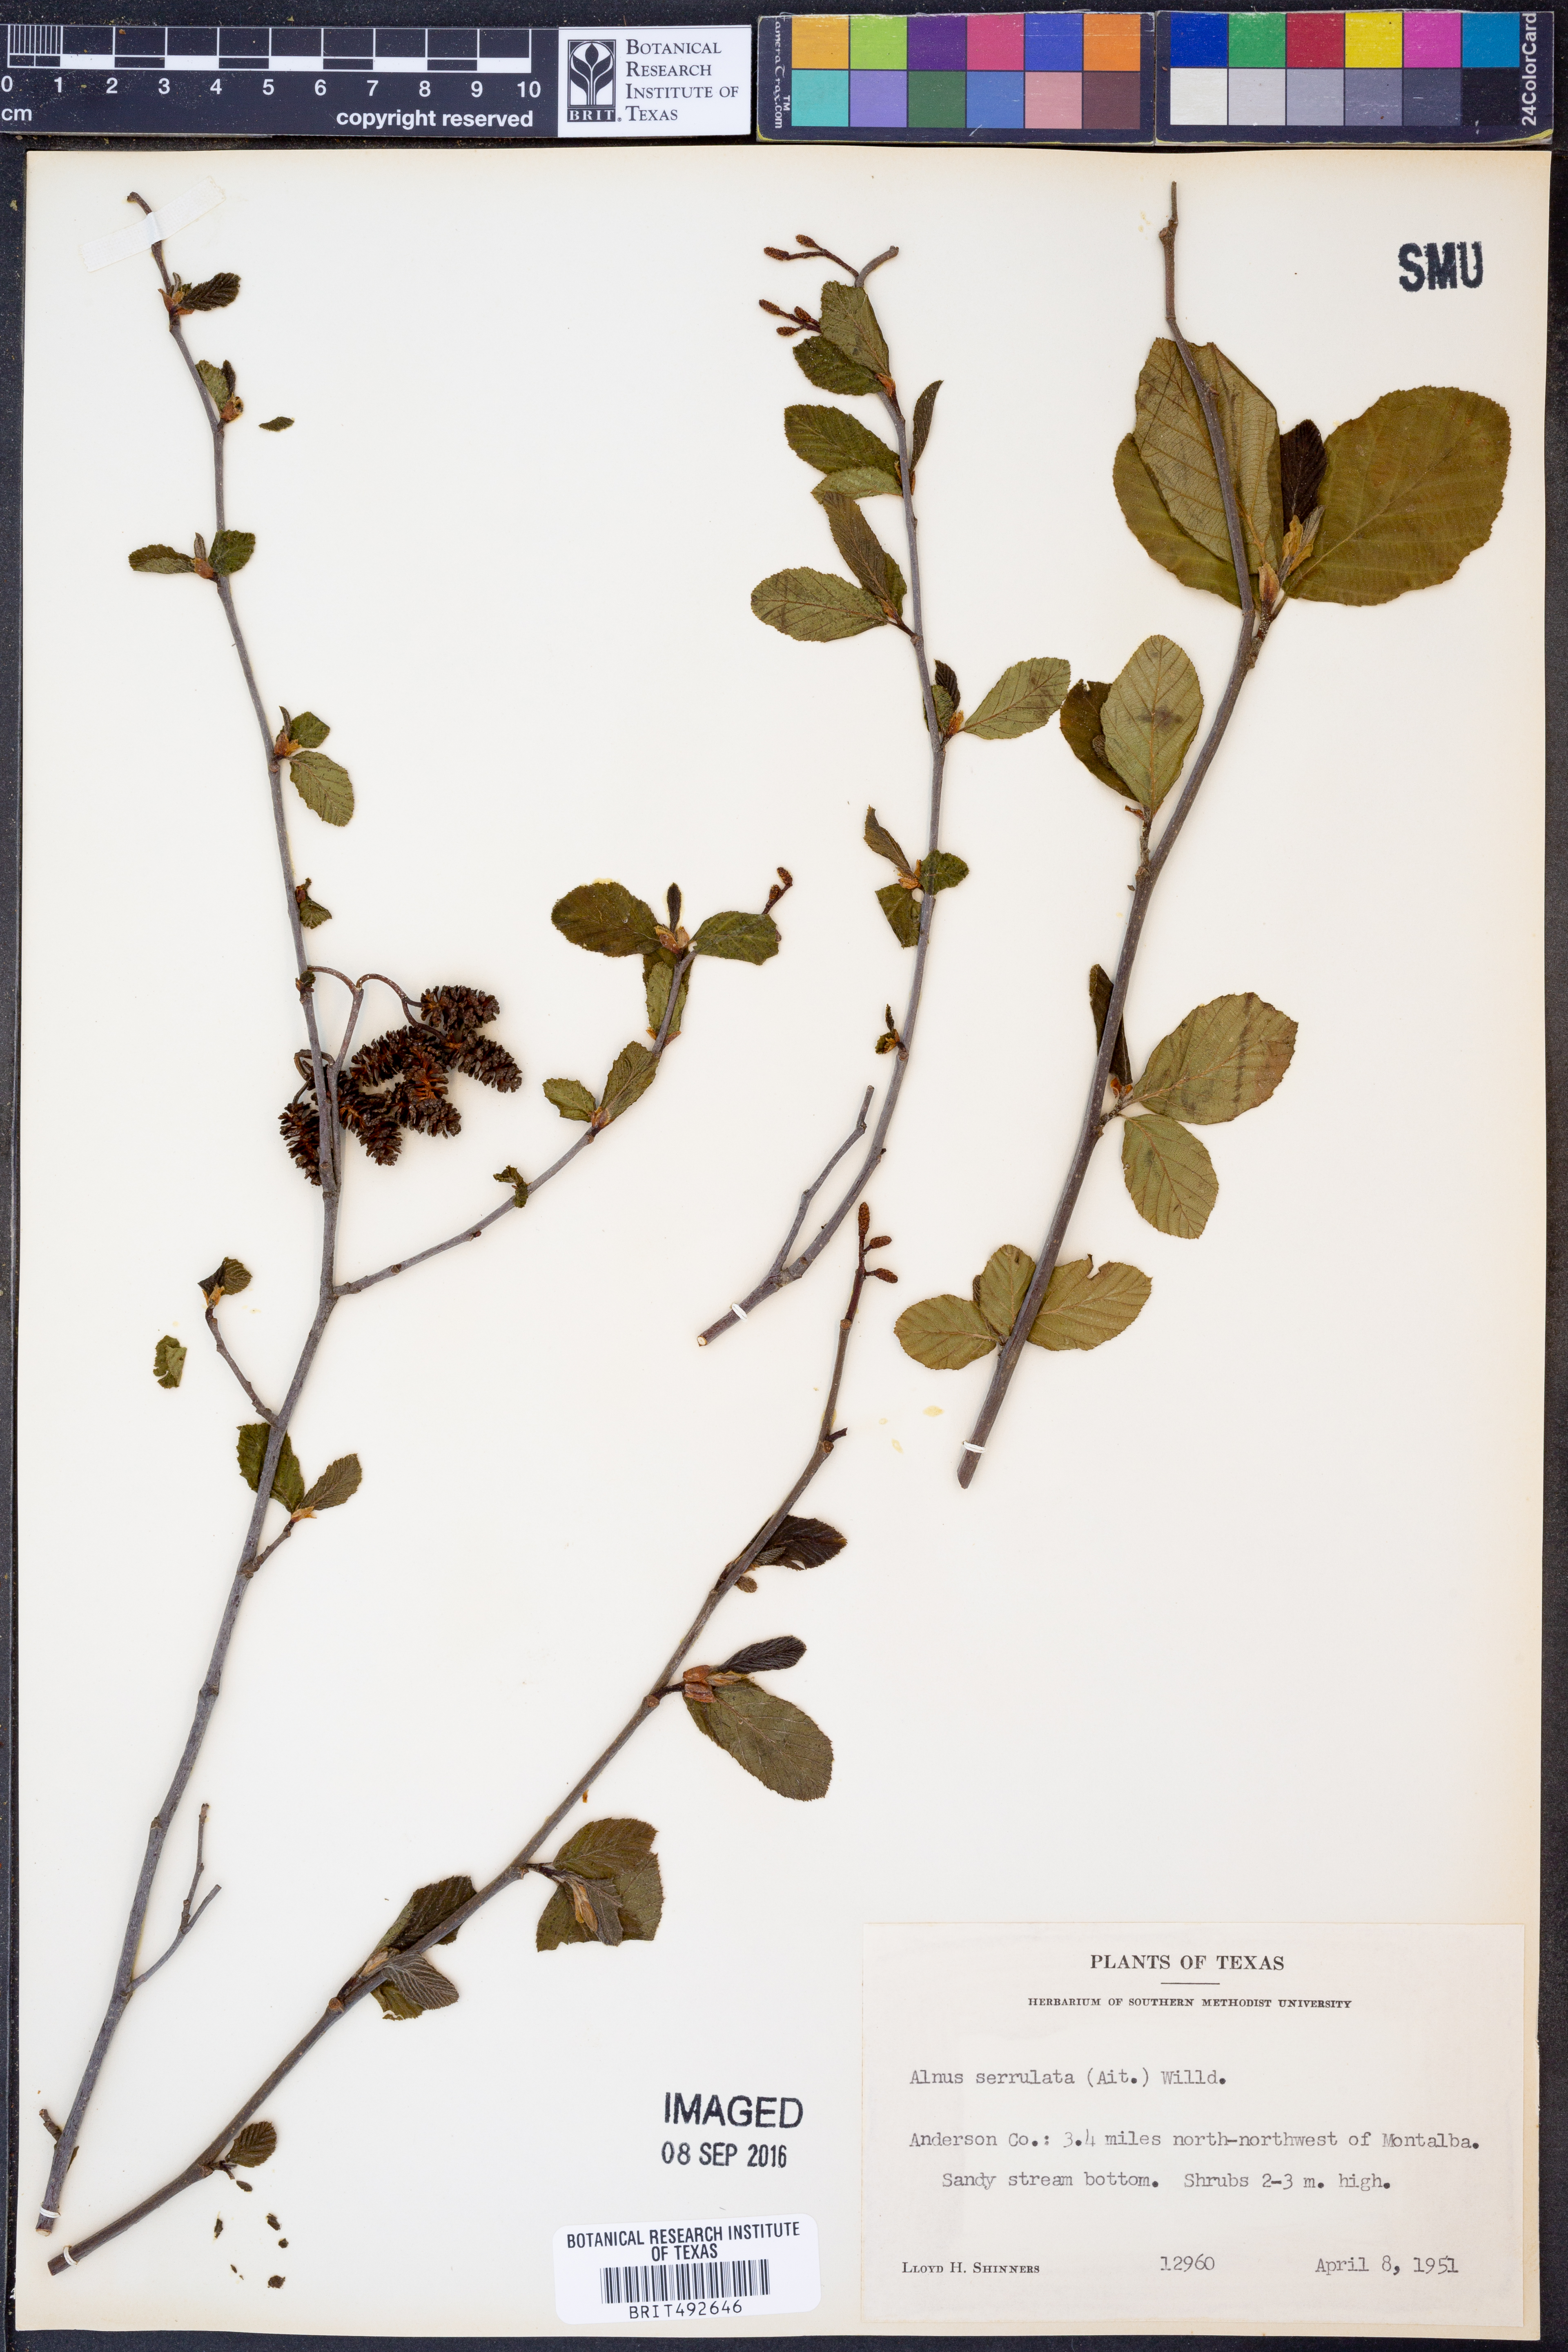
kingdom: Plantae
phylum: Tracheophyta
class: Magnoliopsida
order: Fagales
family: Betulaceae
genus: Alnus
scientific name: Alnus serrulata
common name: Hazel alder
